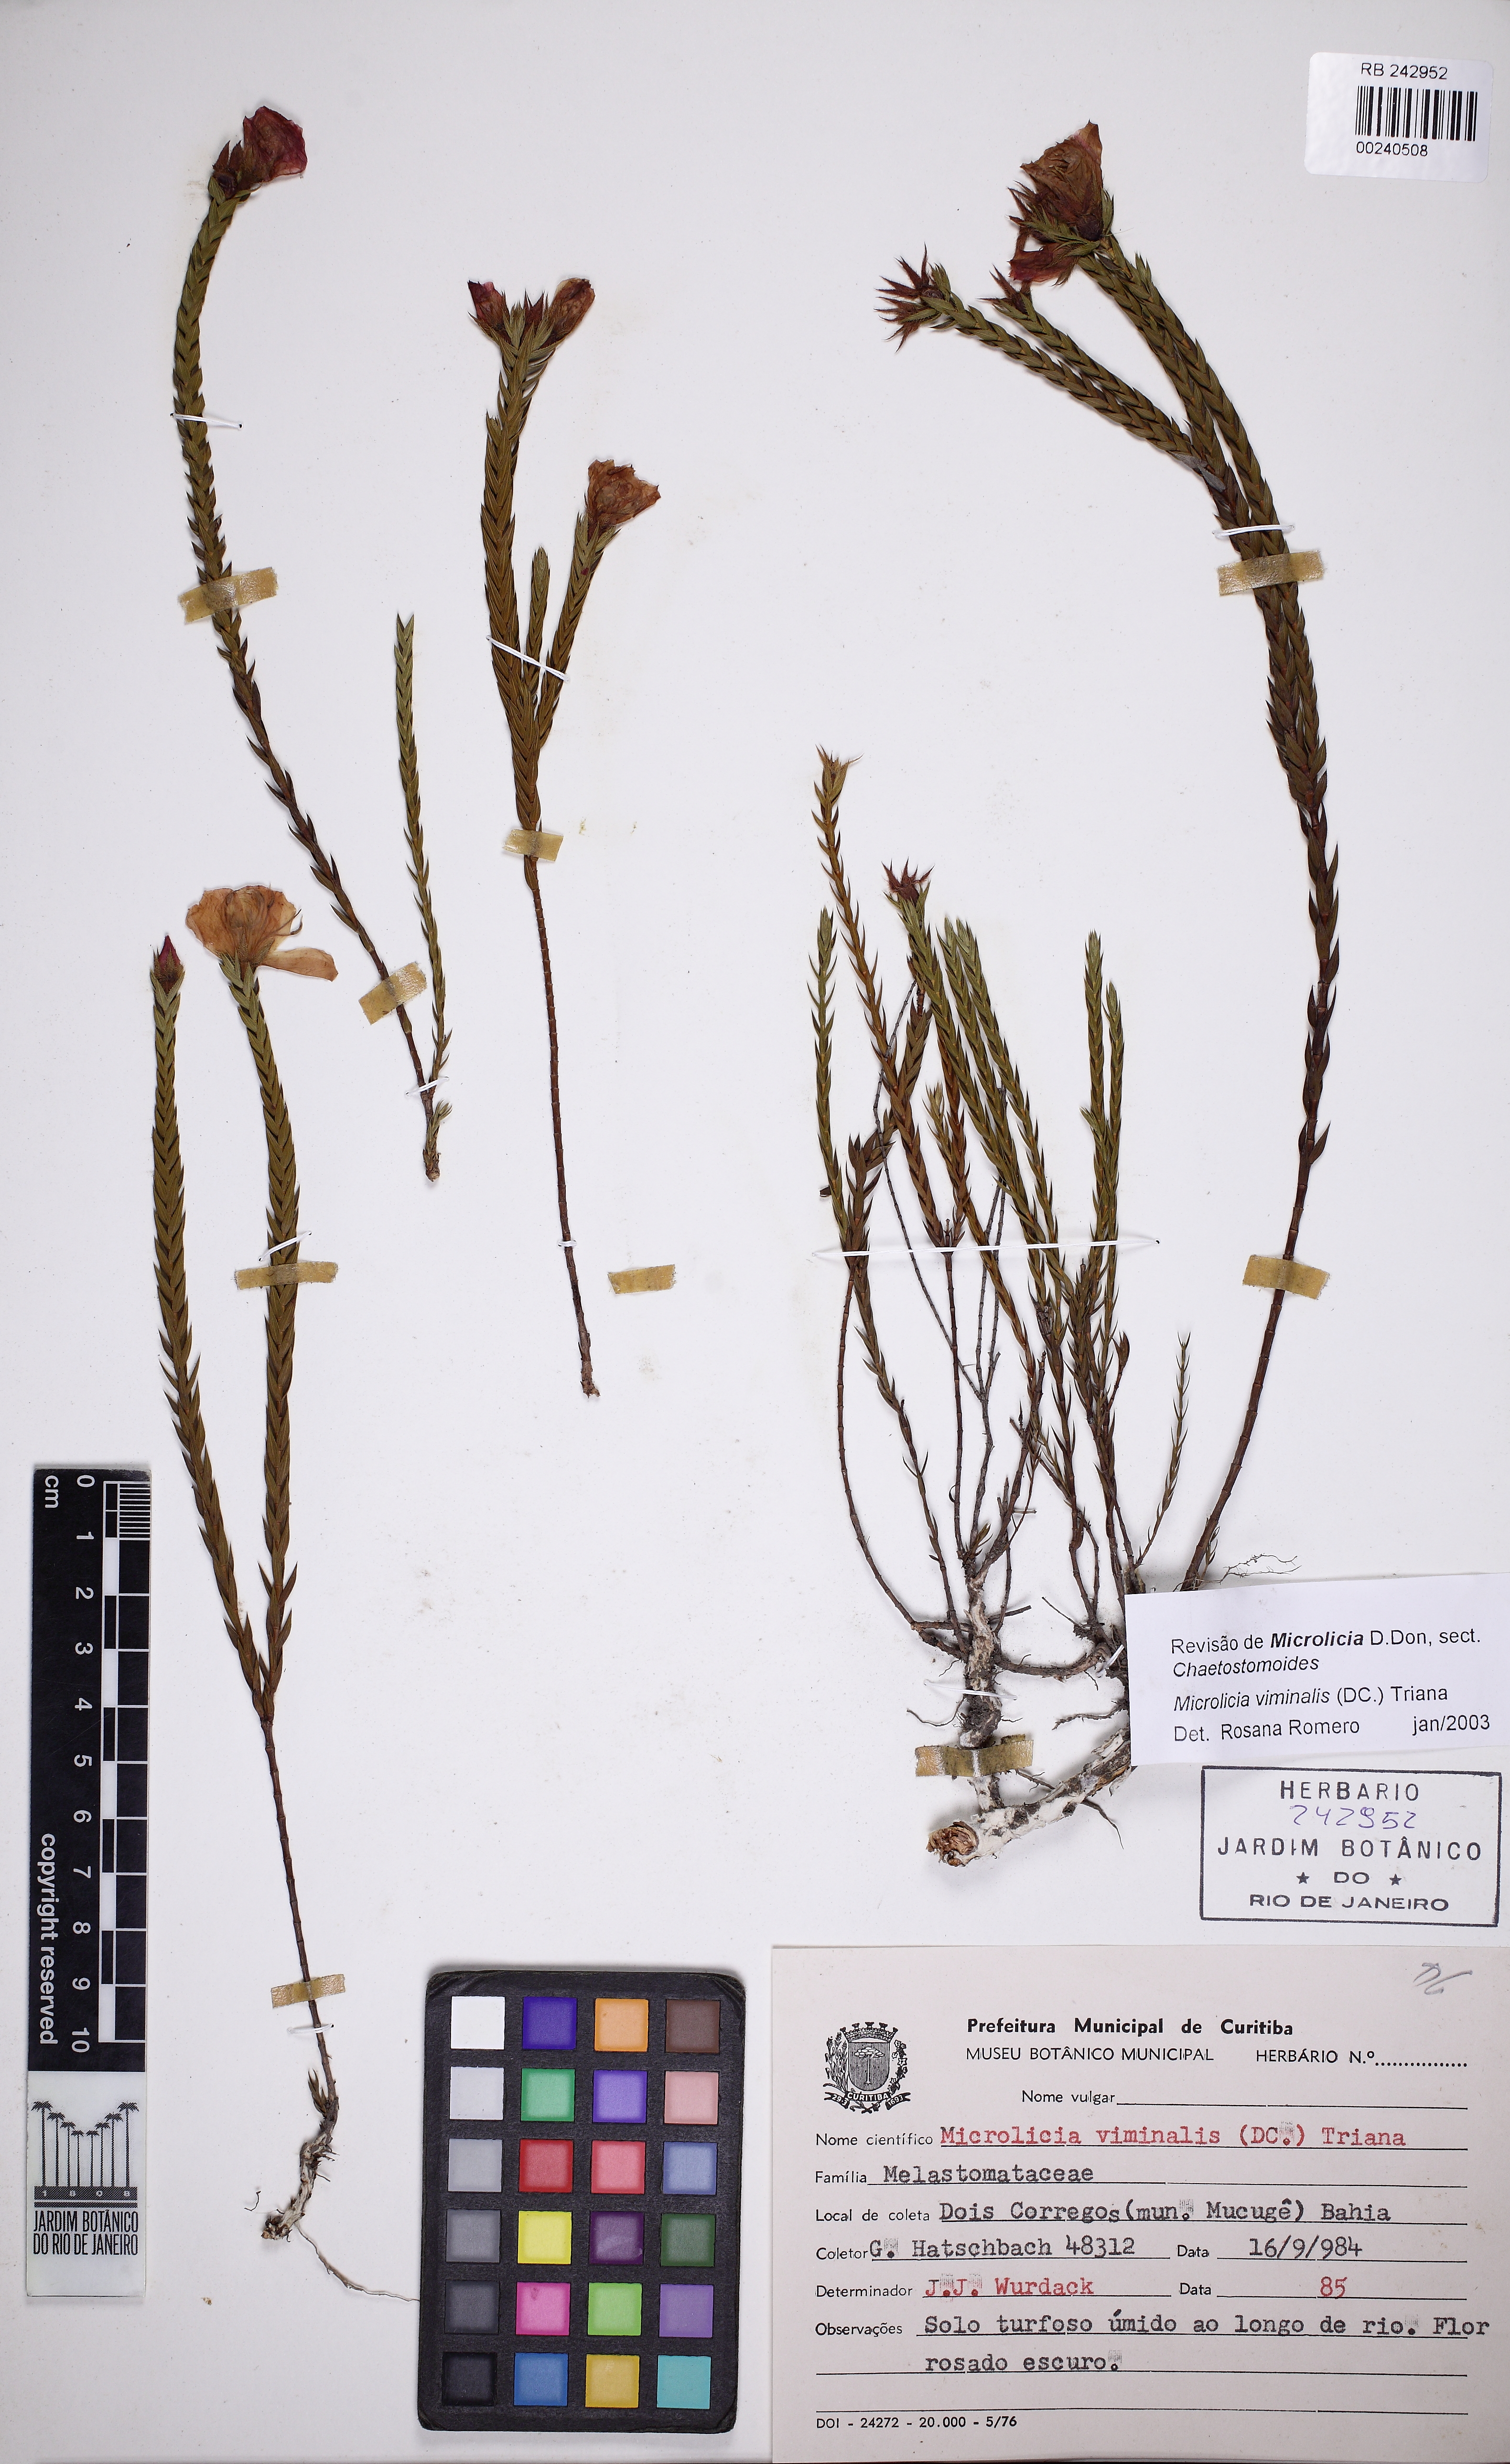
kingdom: Plantae
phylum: Tracheophyta
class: Magnoliopsida
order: Myrtales
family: Melastomataceae
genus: Microlicia
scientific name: Microlicia viminalis
